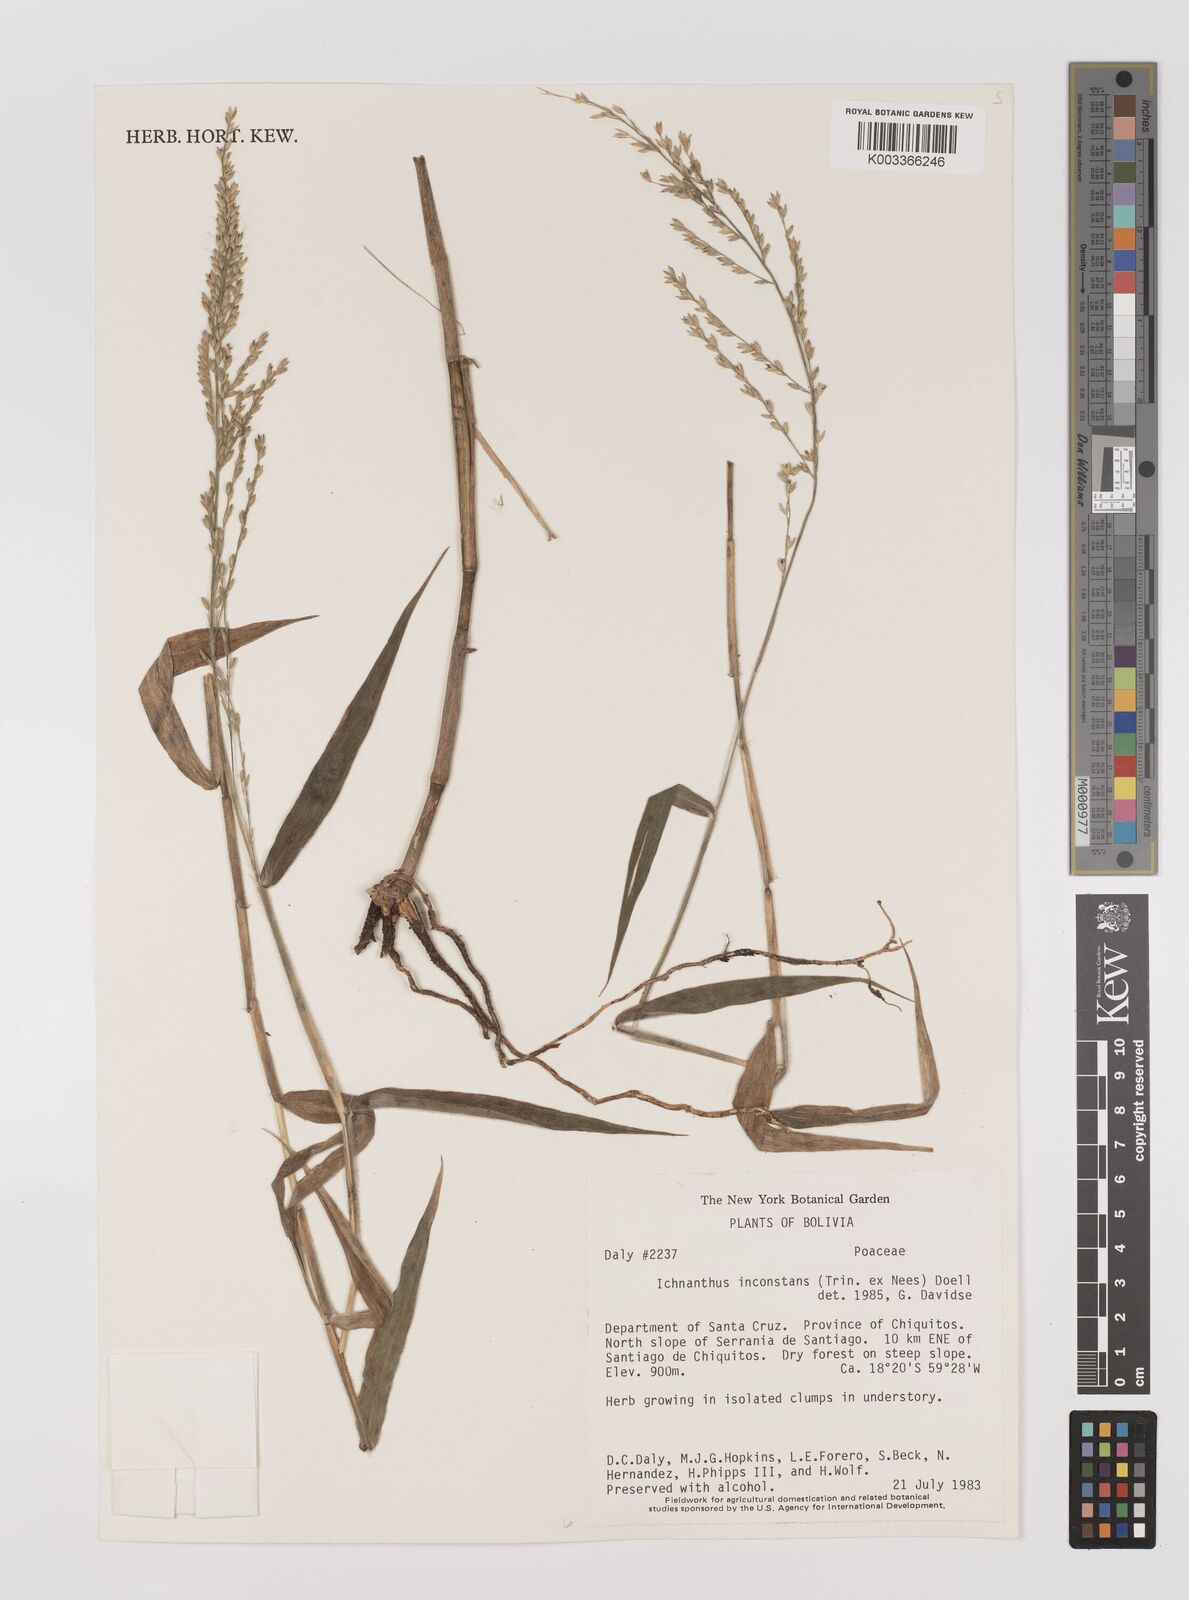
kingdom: Plantae
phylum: Tracheophyta
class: Liliopsida
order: Poales
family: Poaceae
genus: Ichnanthus
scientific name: Ichnanthus inconstans
